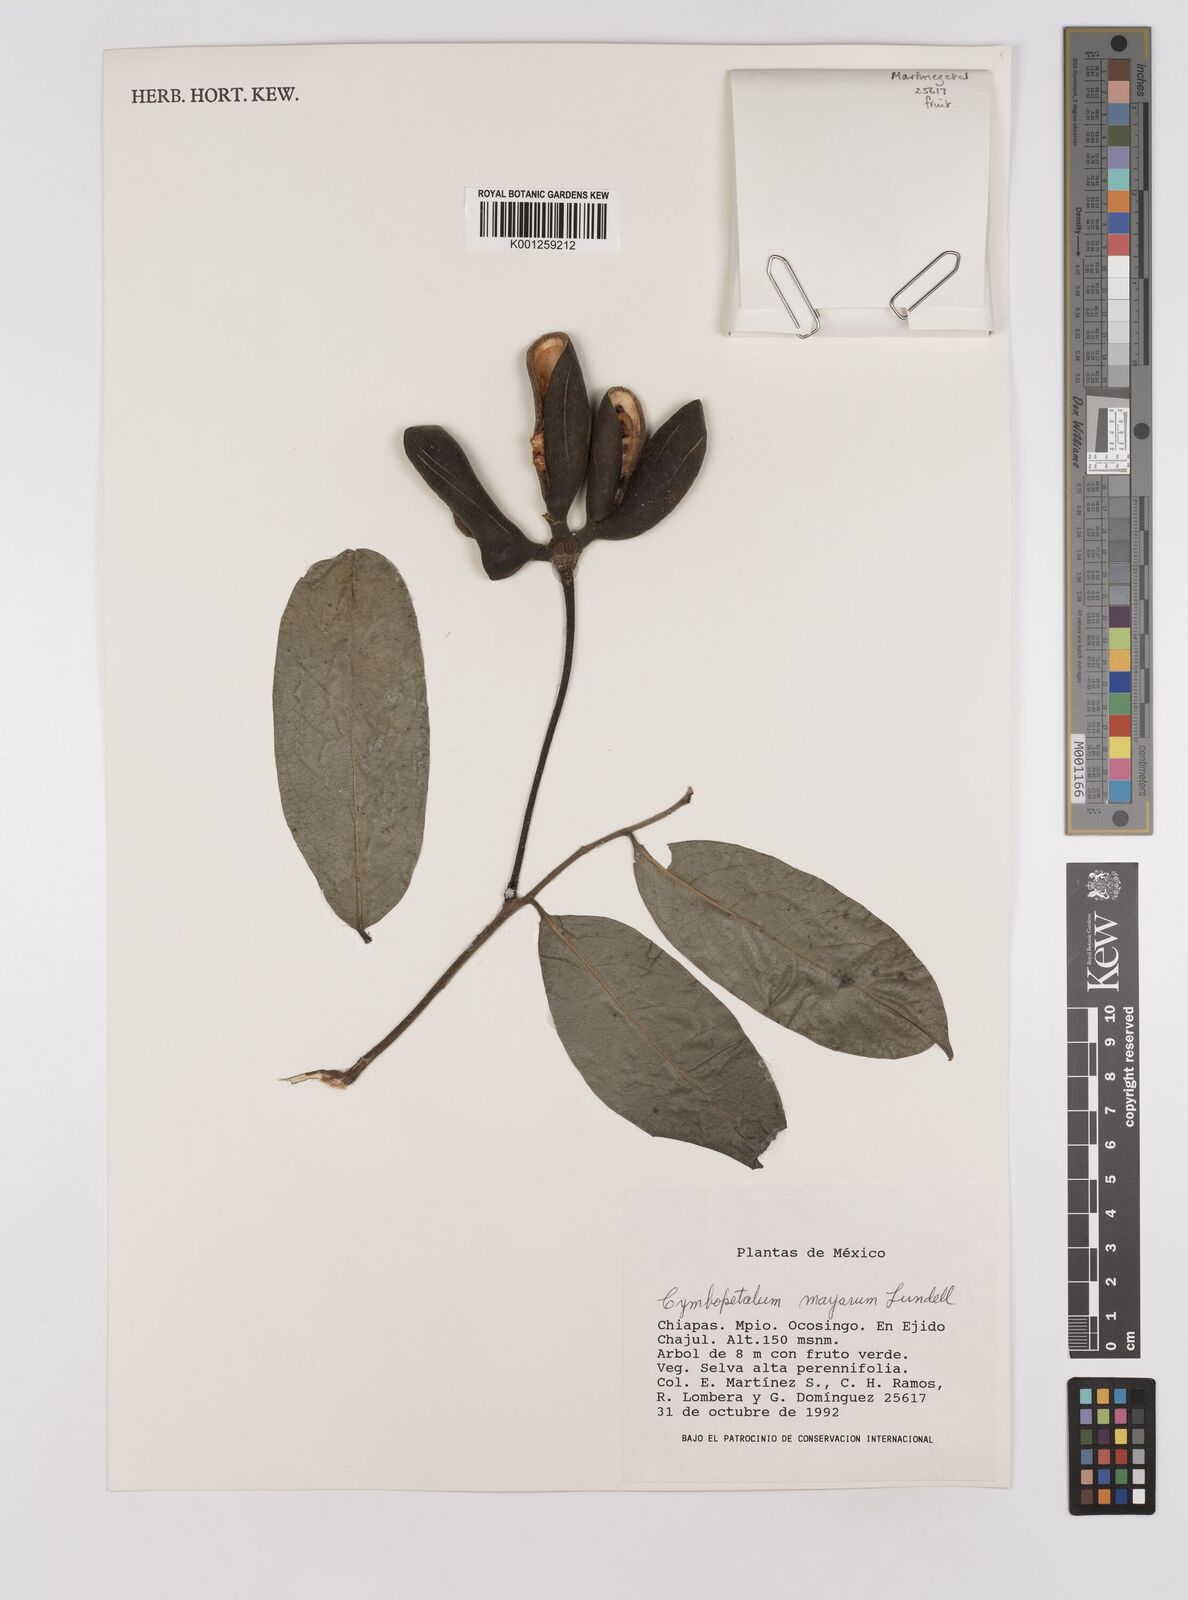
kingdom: Plantae
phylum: Tracheophyta
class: Magnoliopsida
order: Magnoliales
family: Annonaceae
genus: Cymbopetalum
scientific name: Cymbopetalum mayanum
